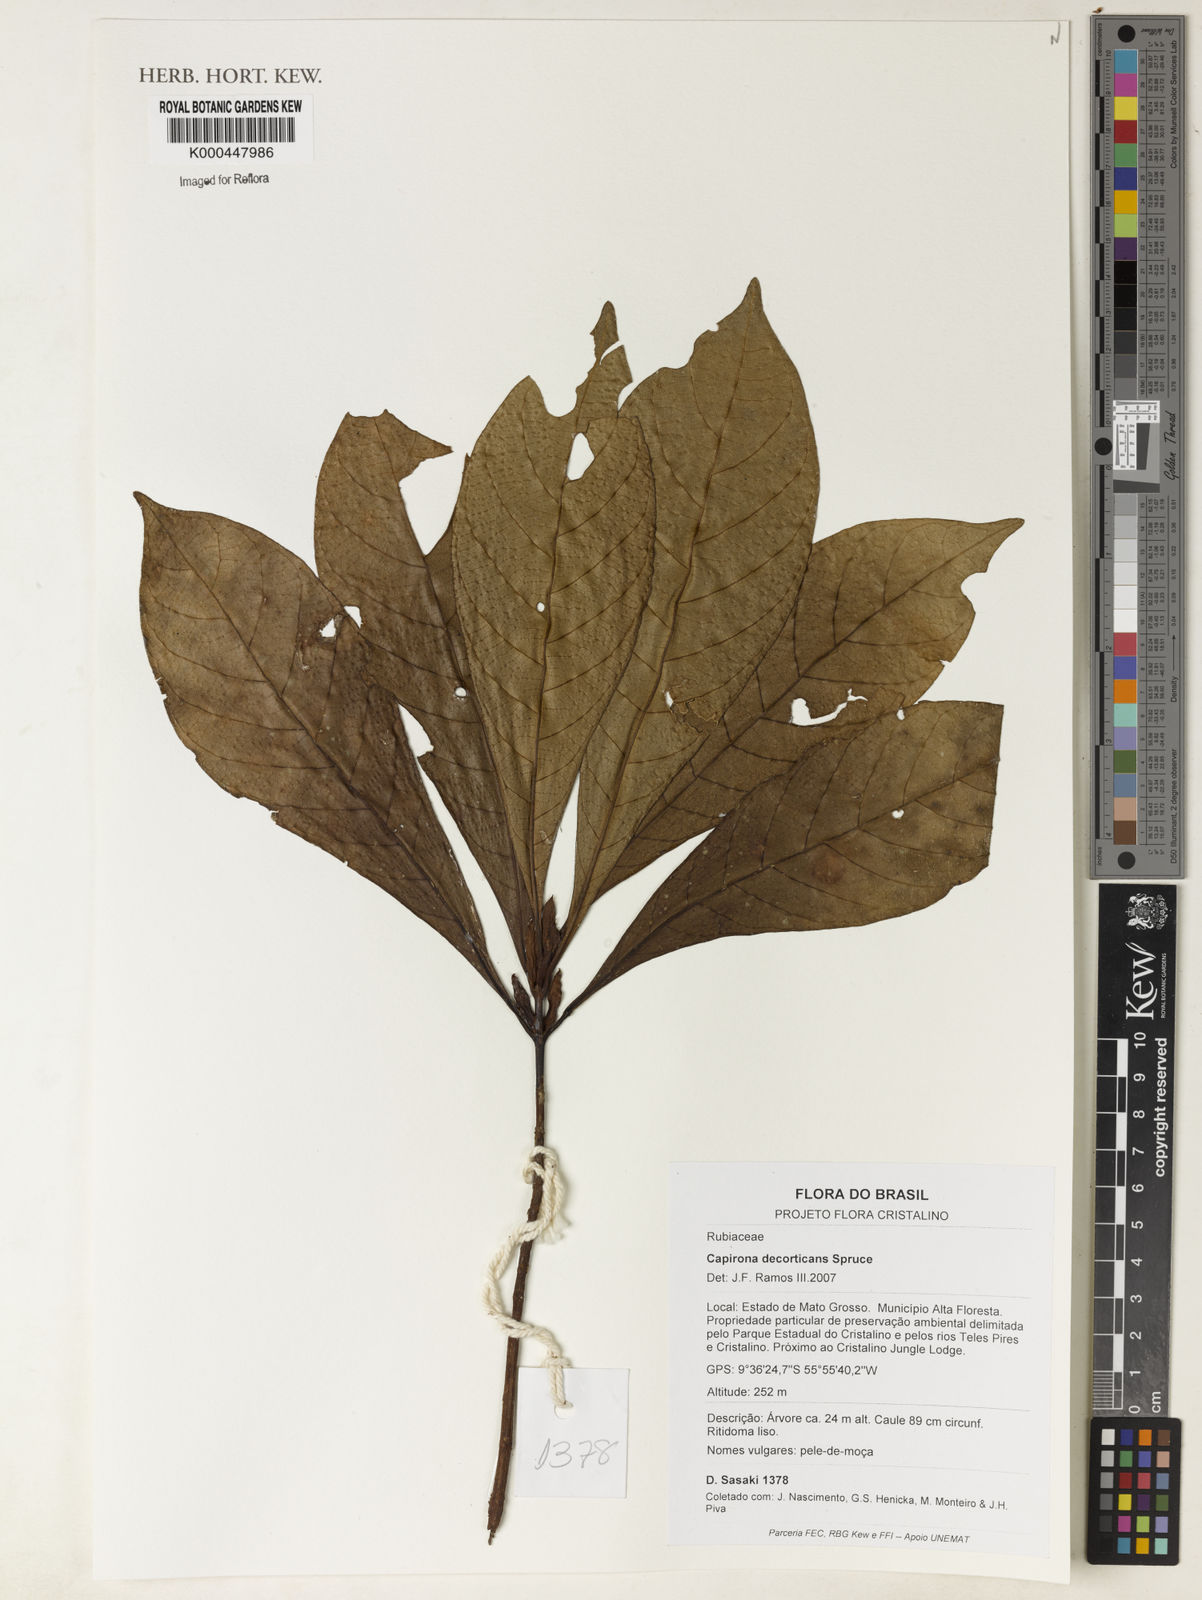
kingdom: Plantae
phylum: Tracheophyta
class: Magnoliopsida
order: Gentianales
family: Rubiaceae
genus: Capirona
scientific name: Capirona macrophylla
